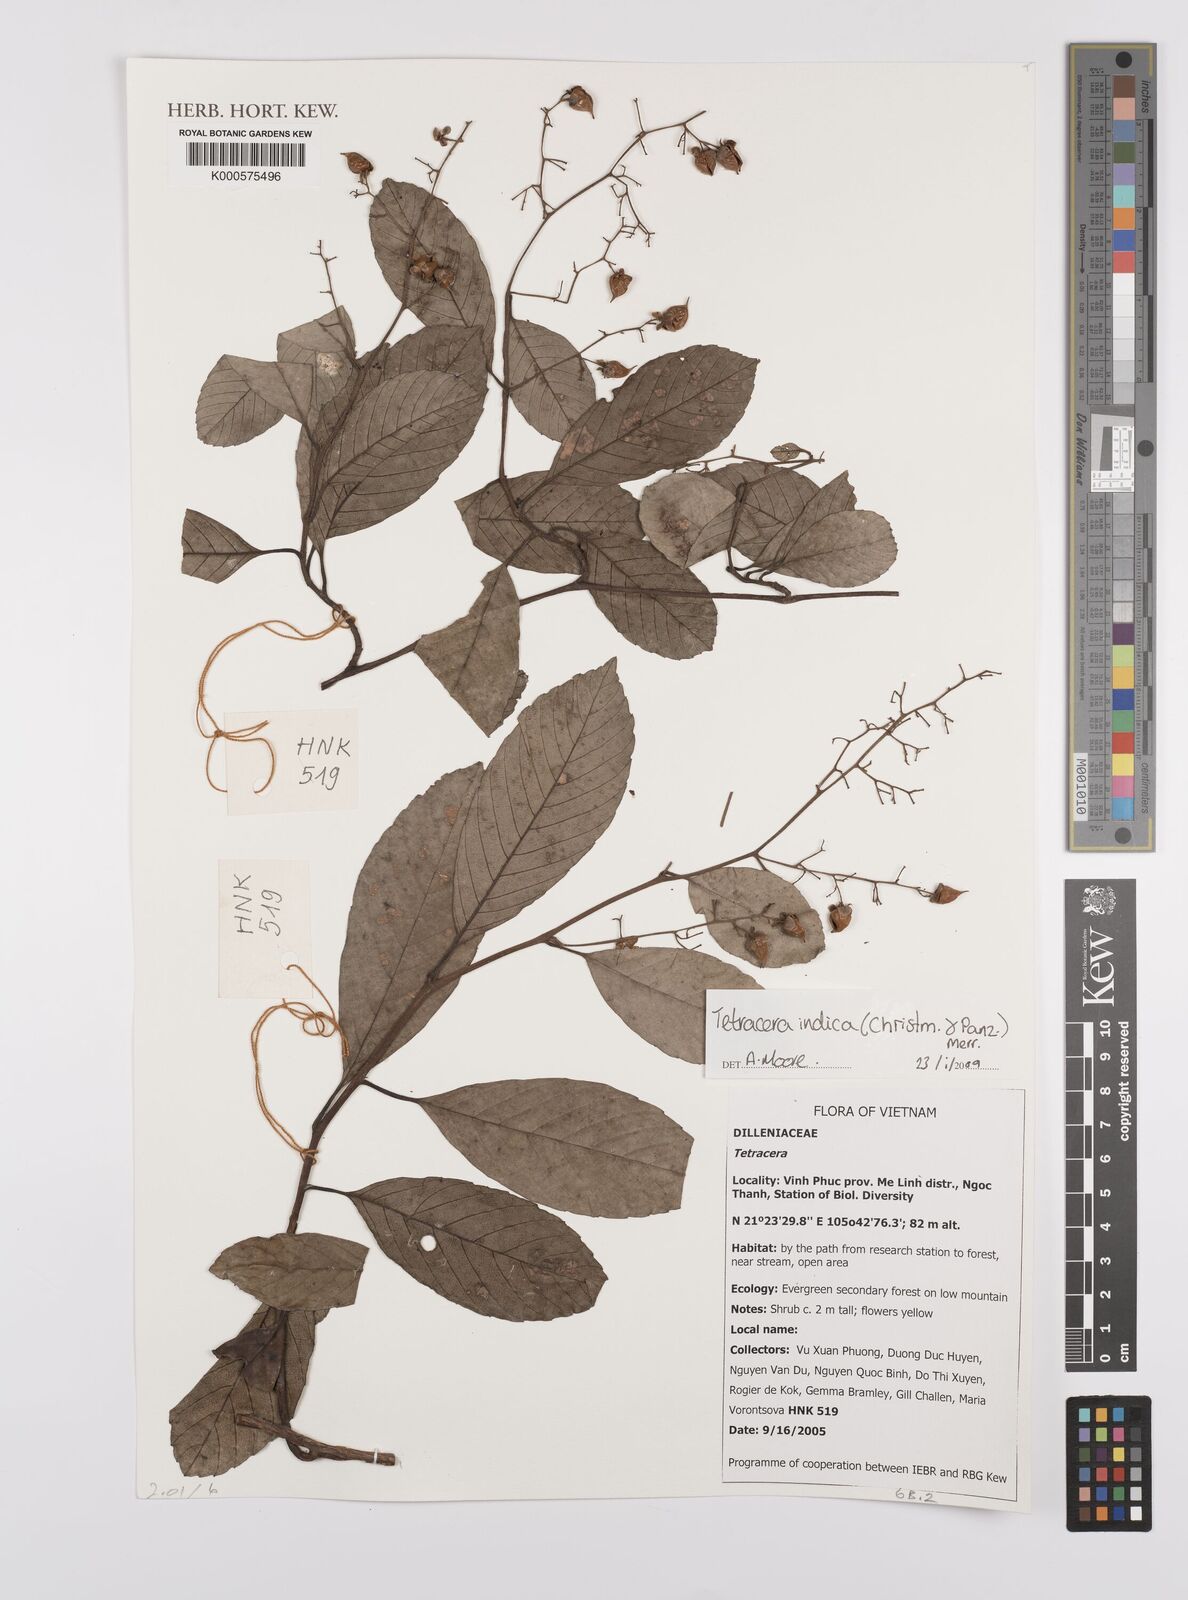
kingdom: Plantae
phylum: Tracheophyta
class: Magnoliopsida
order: Dilleniales
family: Dilleniaceae
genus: Tetracera
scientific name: Tetracera indica
